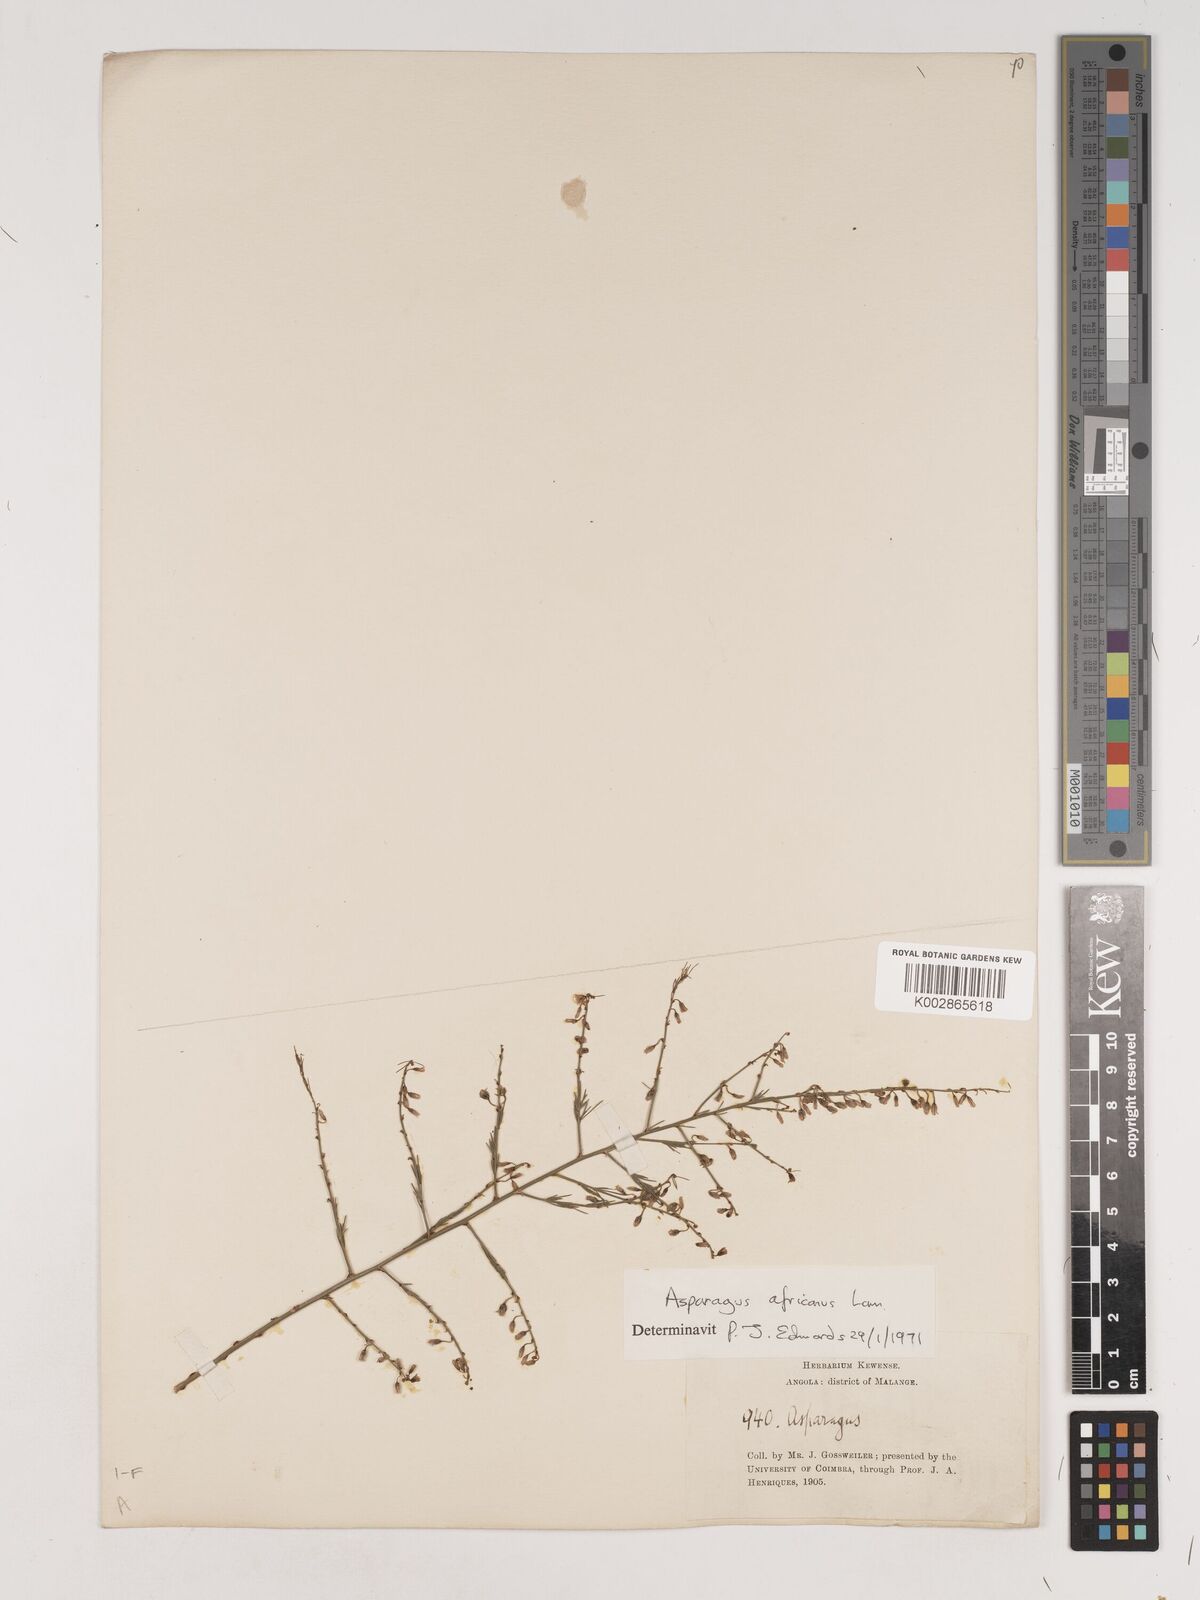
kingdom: Plantae
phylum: Tracheophyta
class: Liliopsida
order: Asparagales
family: Asparagaceae
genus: Asparagus
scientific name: Asparagus africanus
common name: Asparagus-fern
